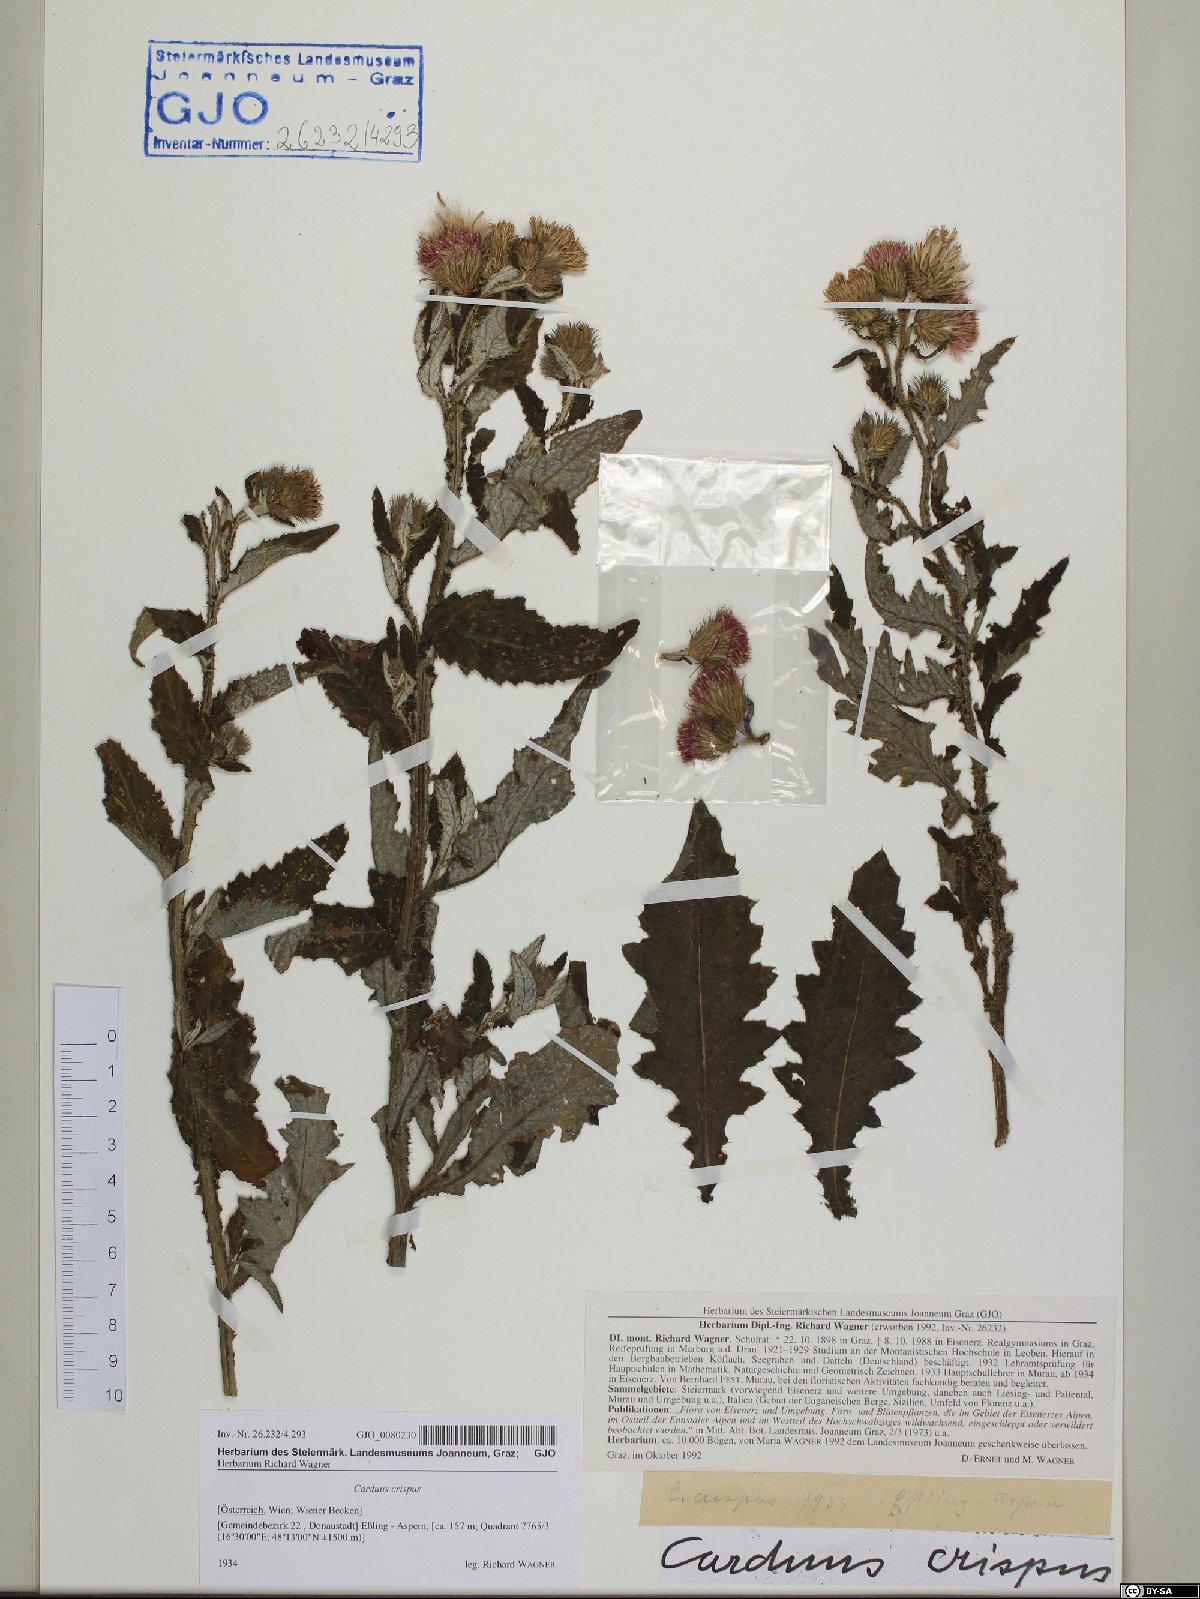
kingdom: Plantae
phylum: Tracheophyta
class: Magnoliopsida
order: Asterales
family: Asteraceae
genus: Carduus
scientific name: Carduus crispus
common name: Welted thistle
